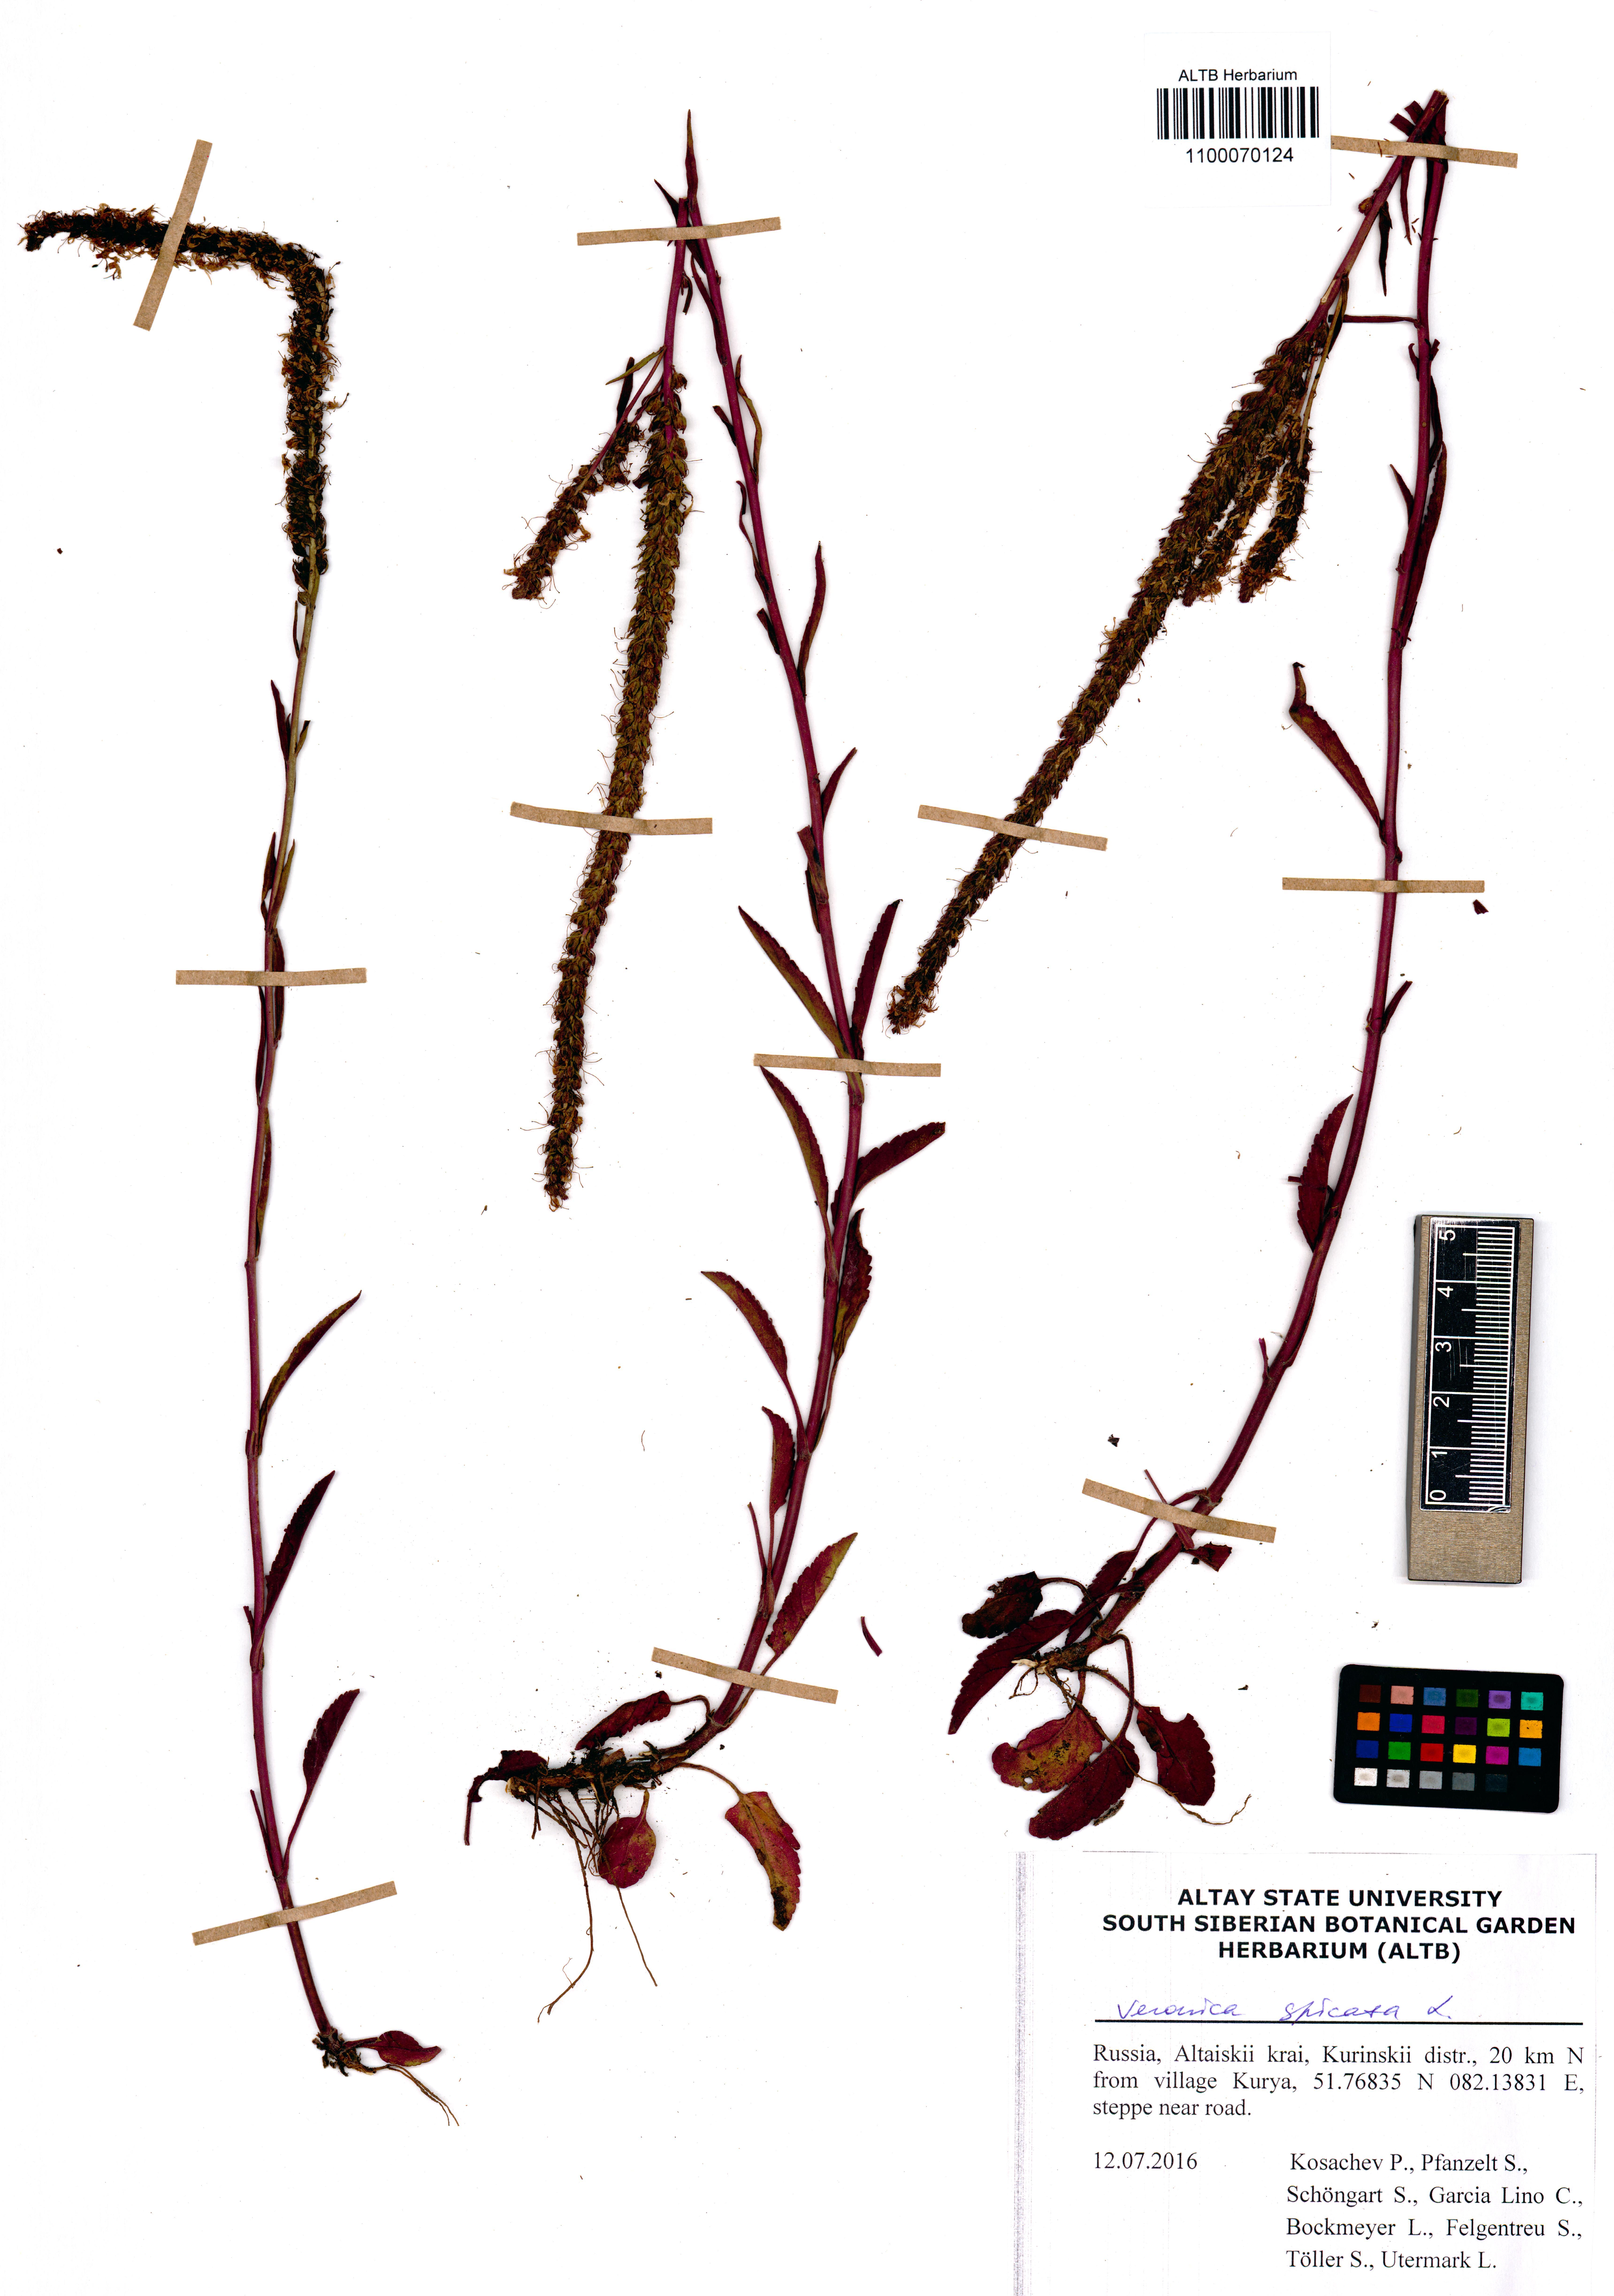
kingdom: Plantae
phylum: Tracheophyta
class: Magnoliopsida
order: Lamiales
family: Plantaginaceae
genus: Veronica
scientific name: Veronica spicata
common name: Spiked speedwell
